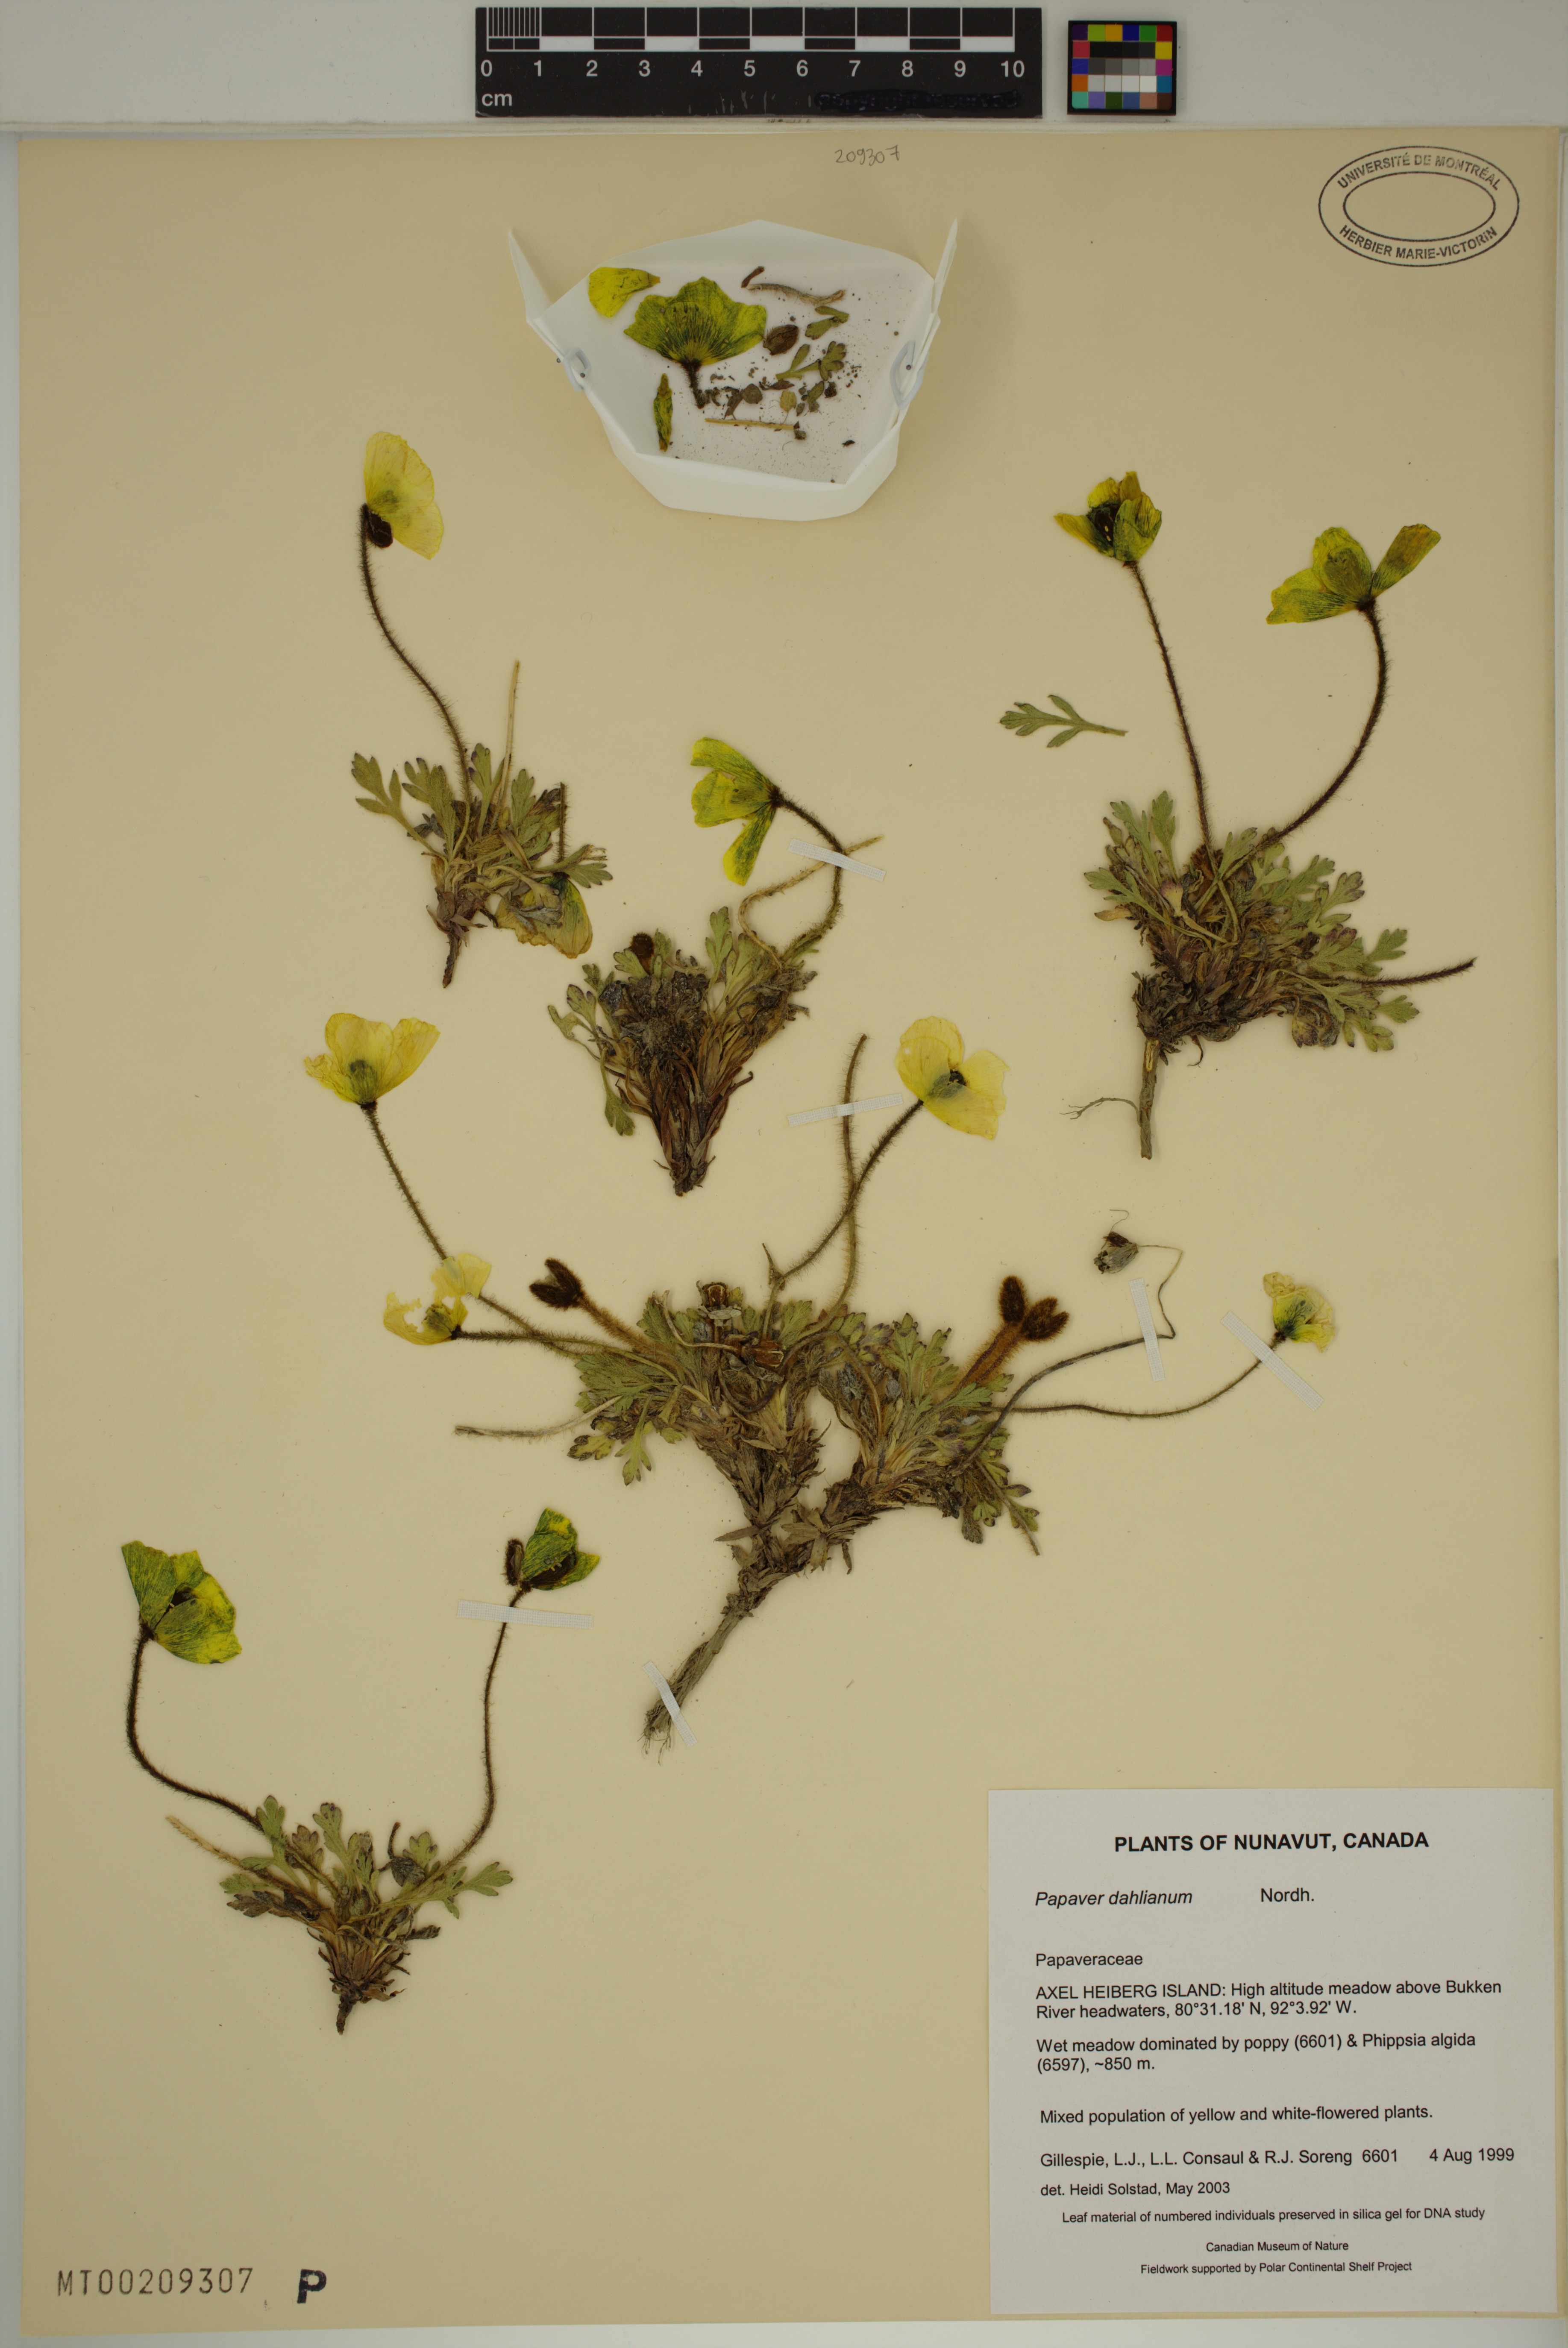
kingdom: Plantae
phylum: Tracheophyta
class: Magnoliopsida
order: Ranunculales
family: Papaveraceae
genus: Papaver
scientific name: Papaver radicatum
